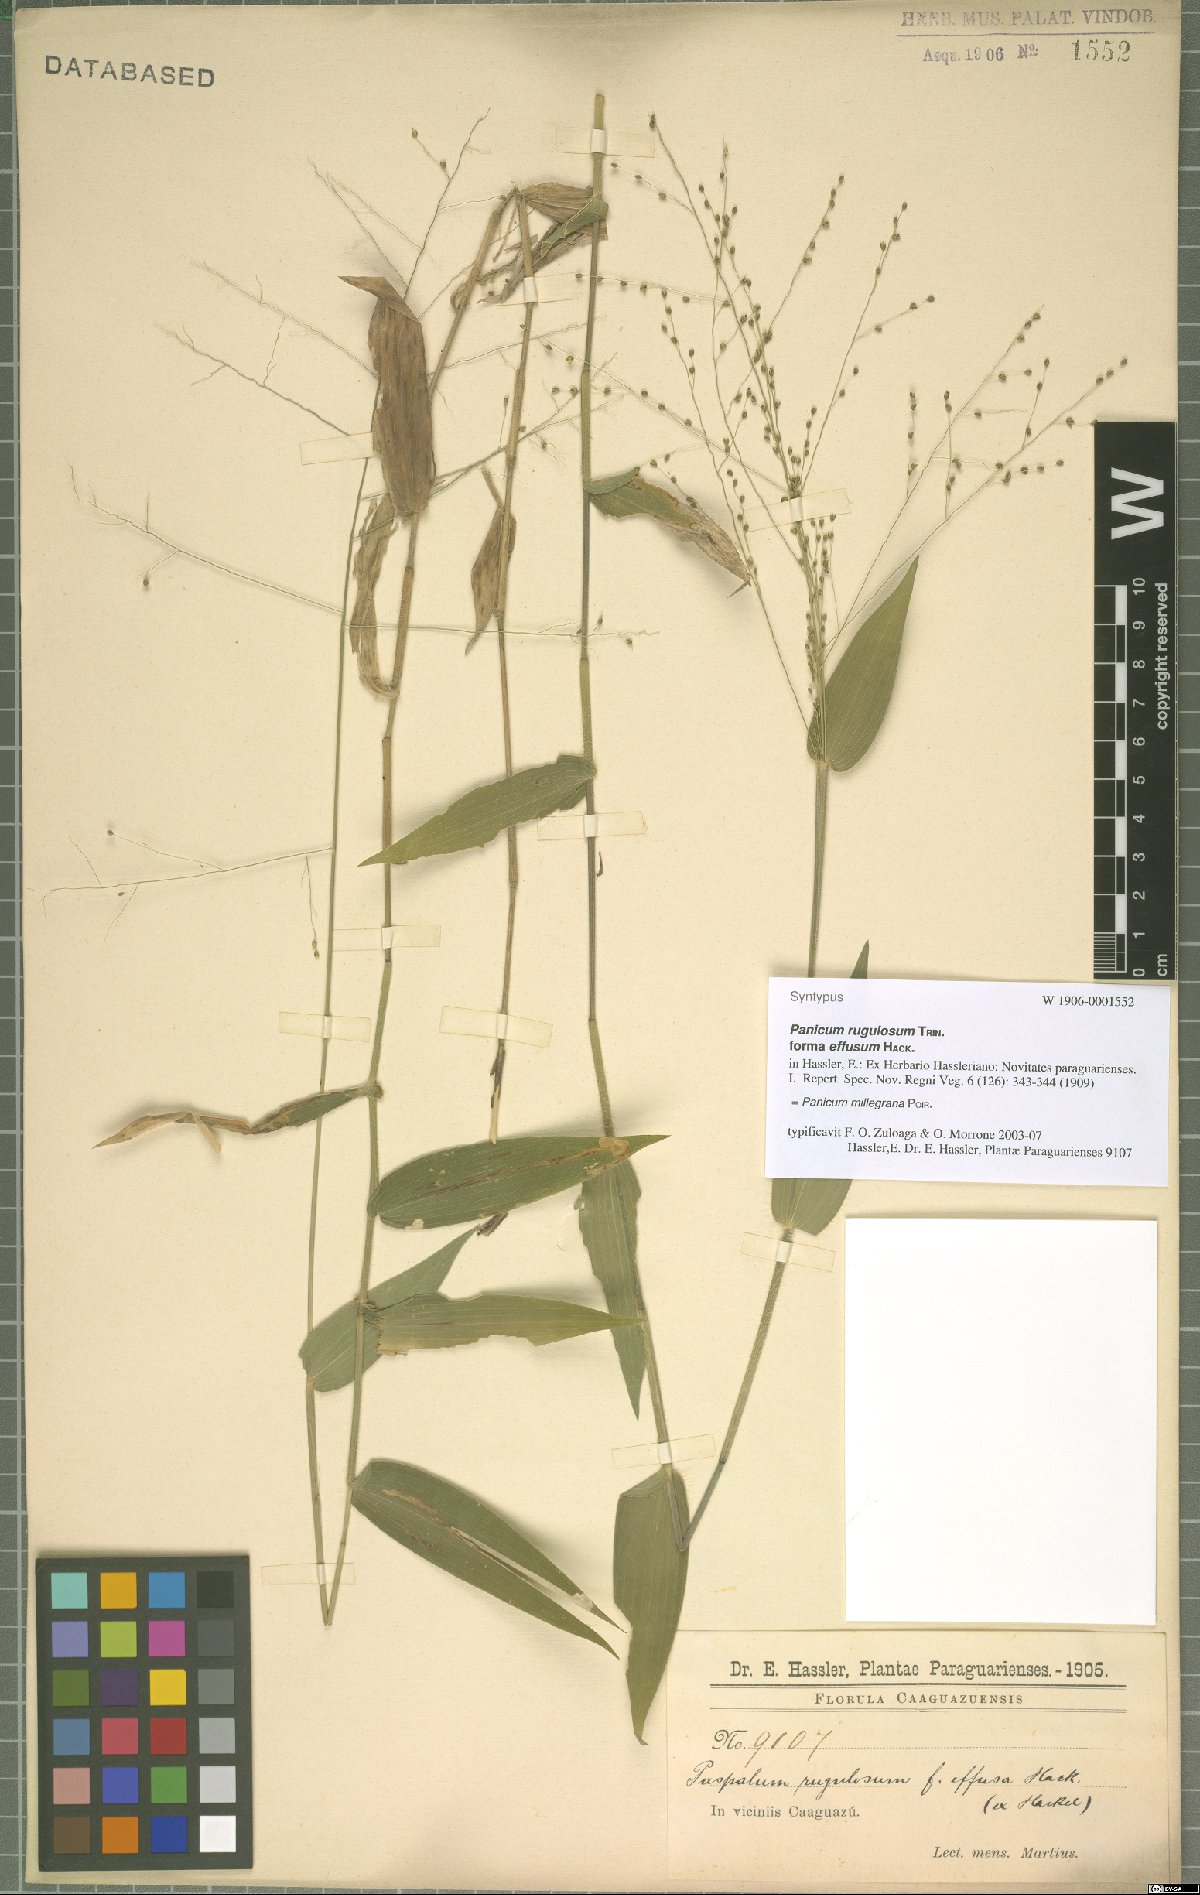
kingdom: Plantae
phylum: Tracheophyta
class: Liliopsida
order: Poales
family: Poaceae
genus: Panicum
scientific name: Panicum millegrana
